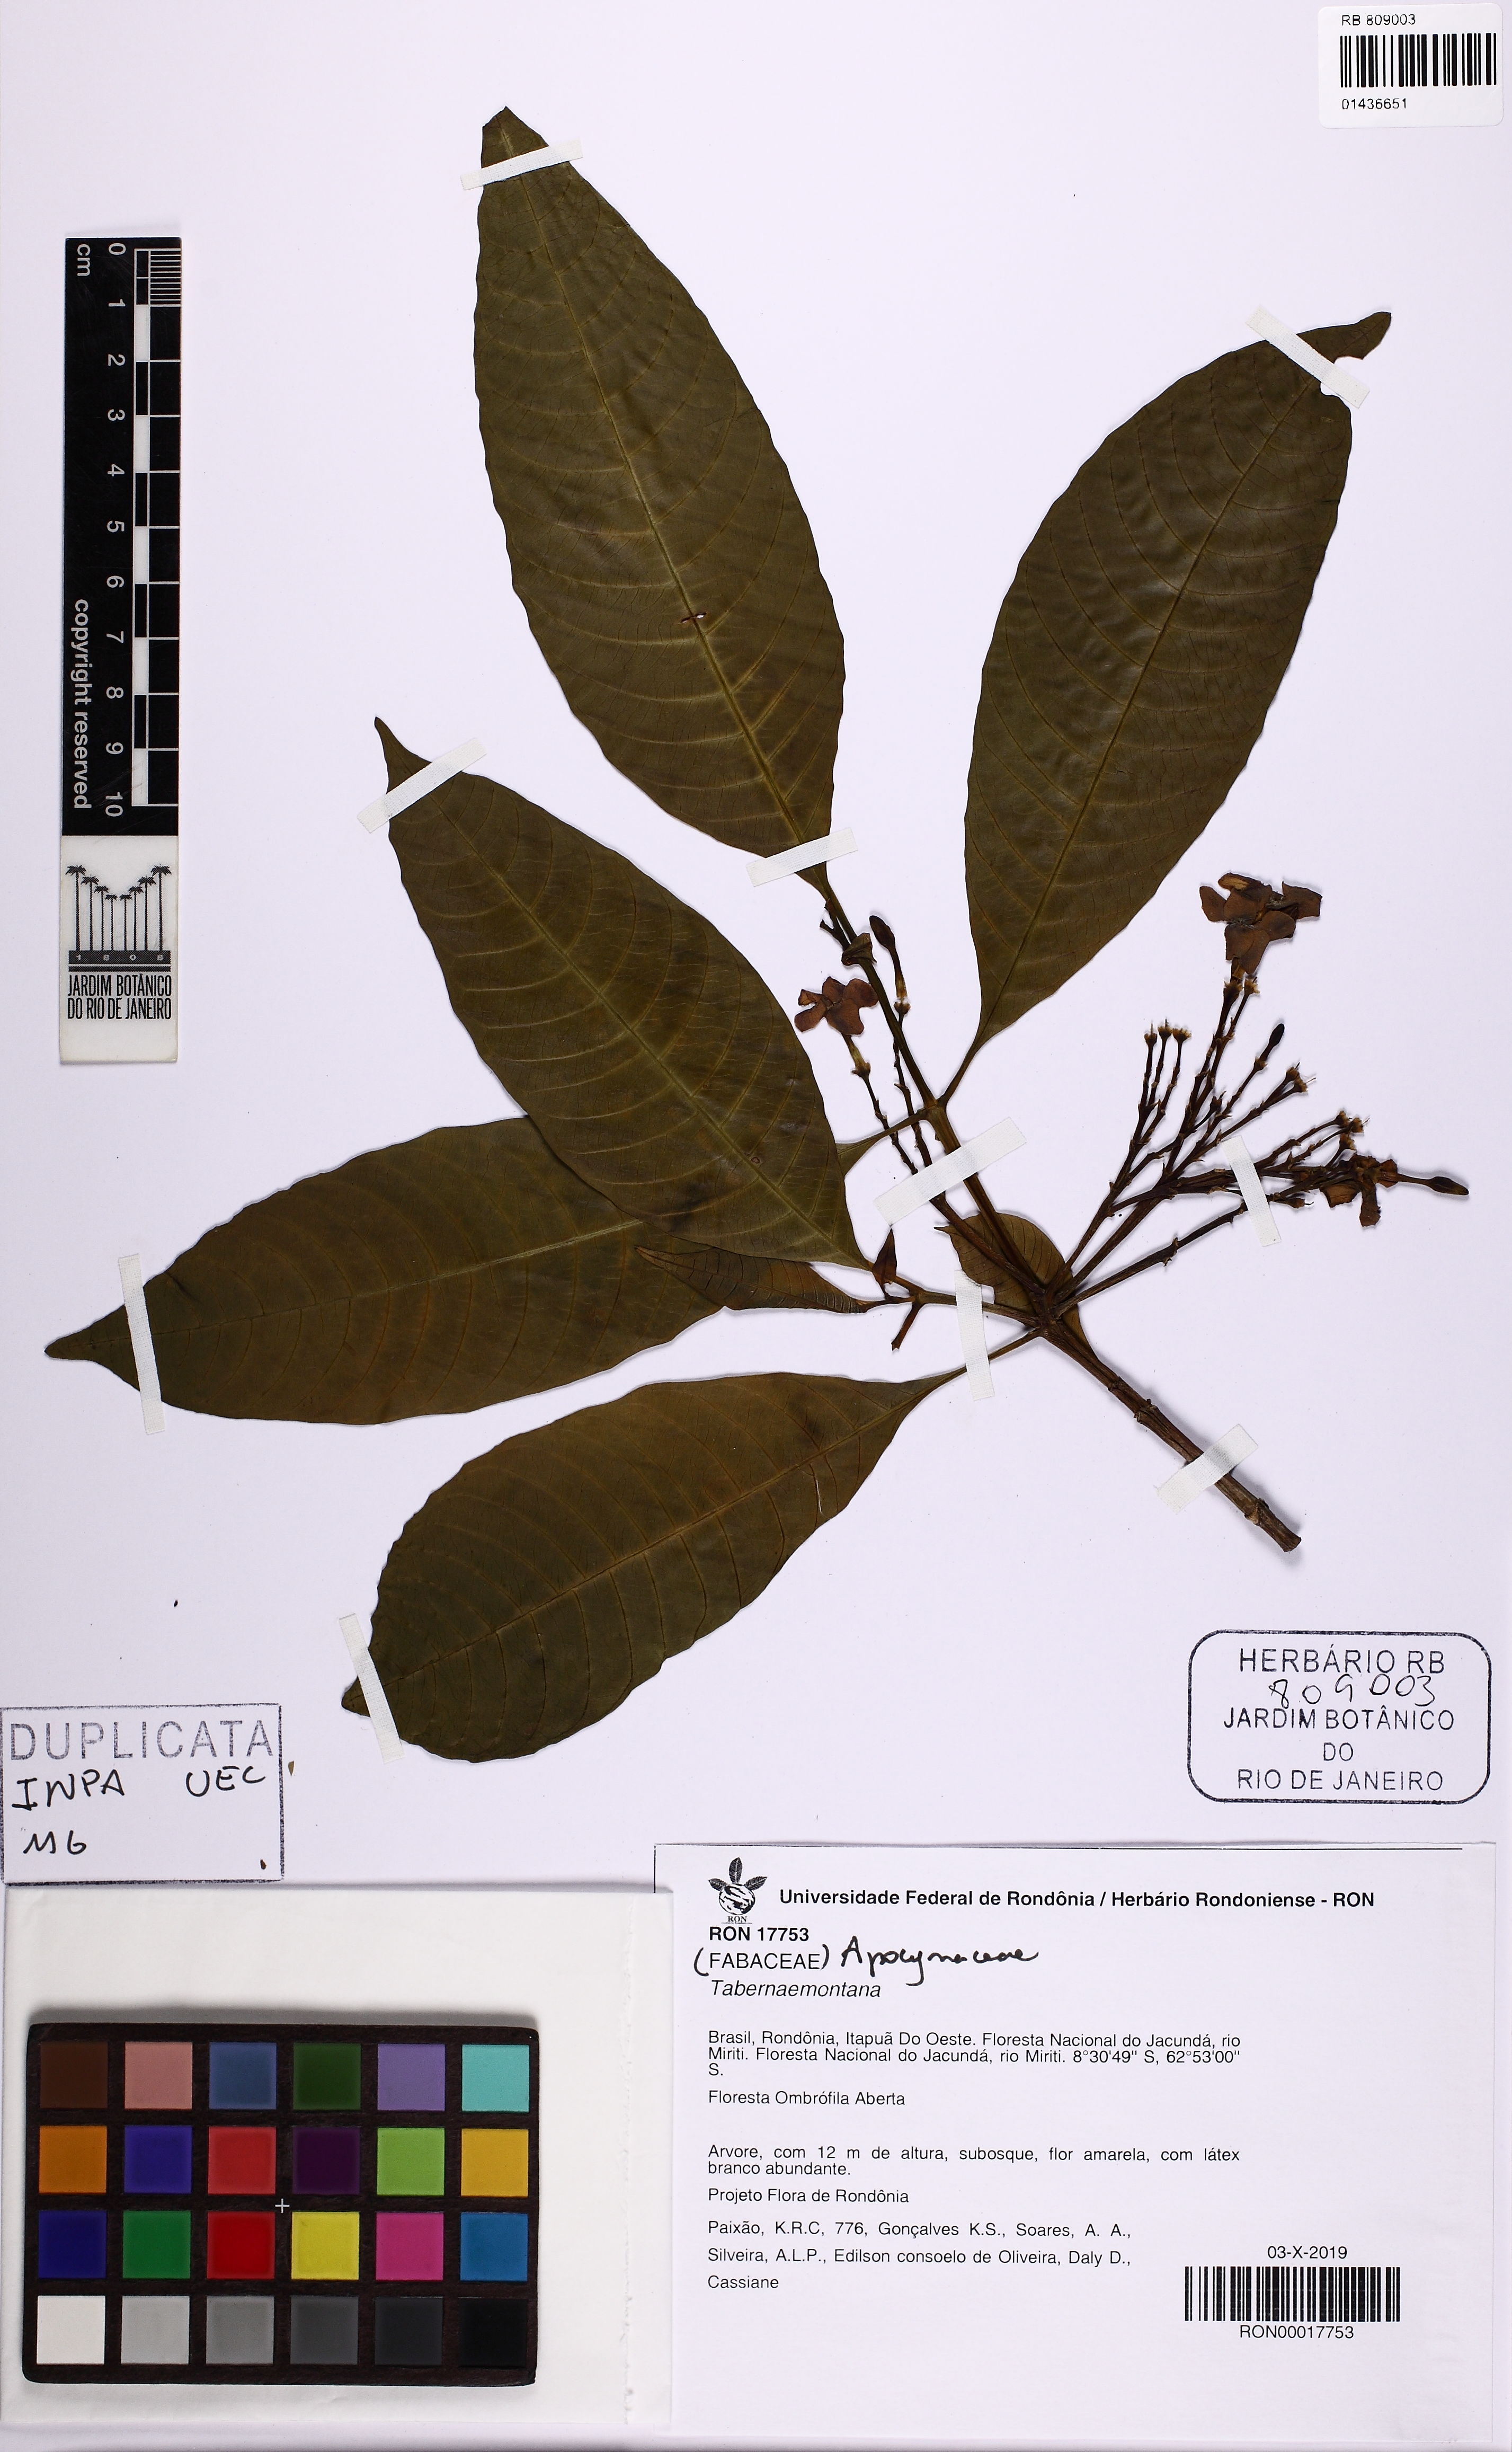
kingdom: Plantae
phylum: Tracheophyta
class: Magnoliopsida
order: Gentianales
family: Apocynaceae
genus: Tabernaemontana
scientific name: Tabernaemontana
